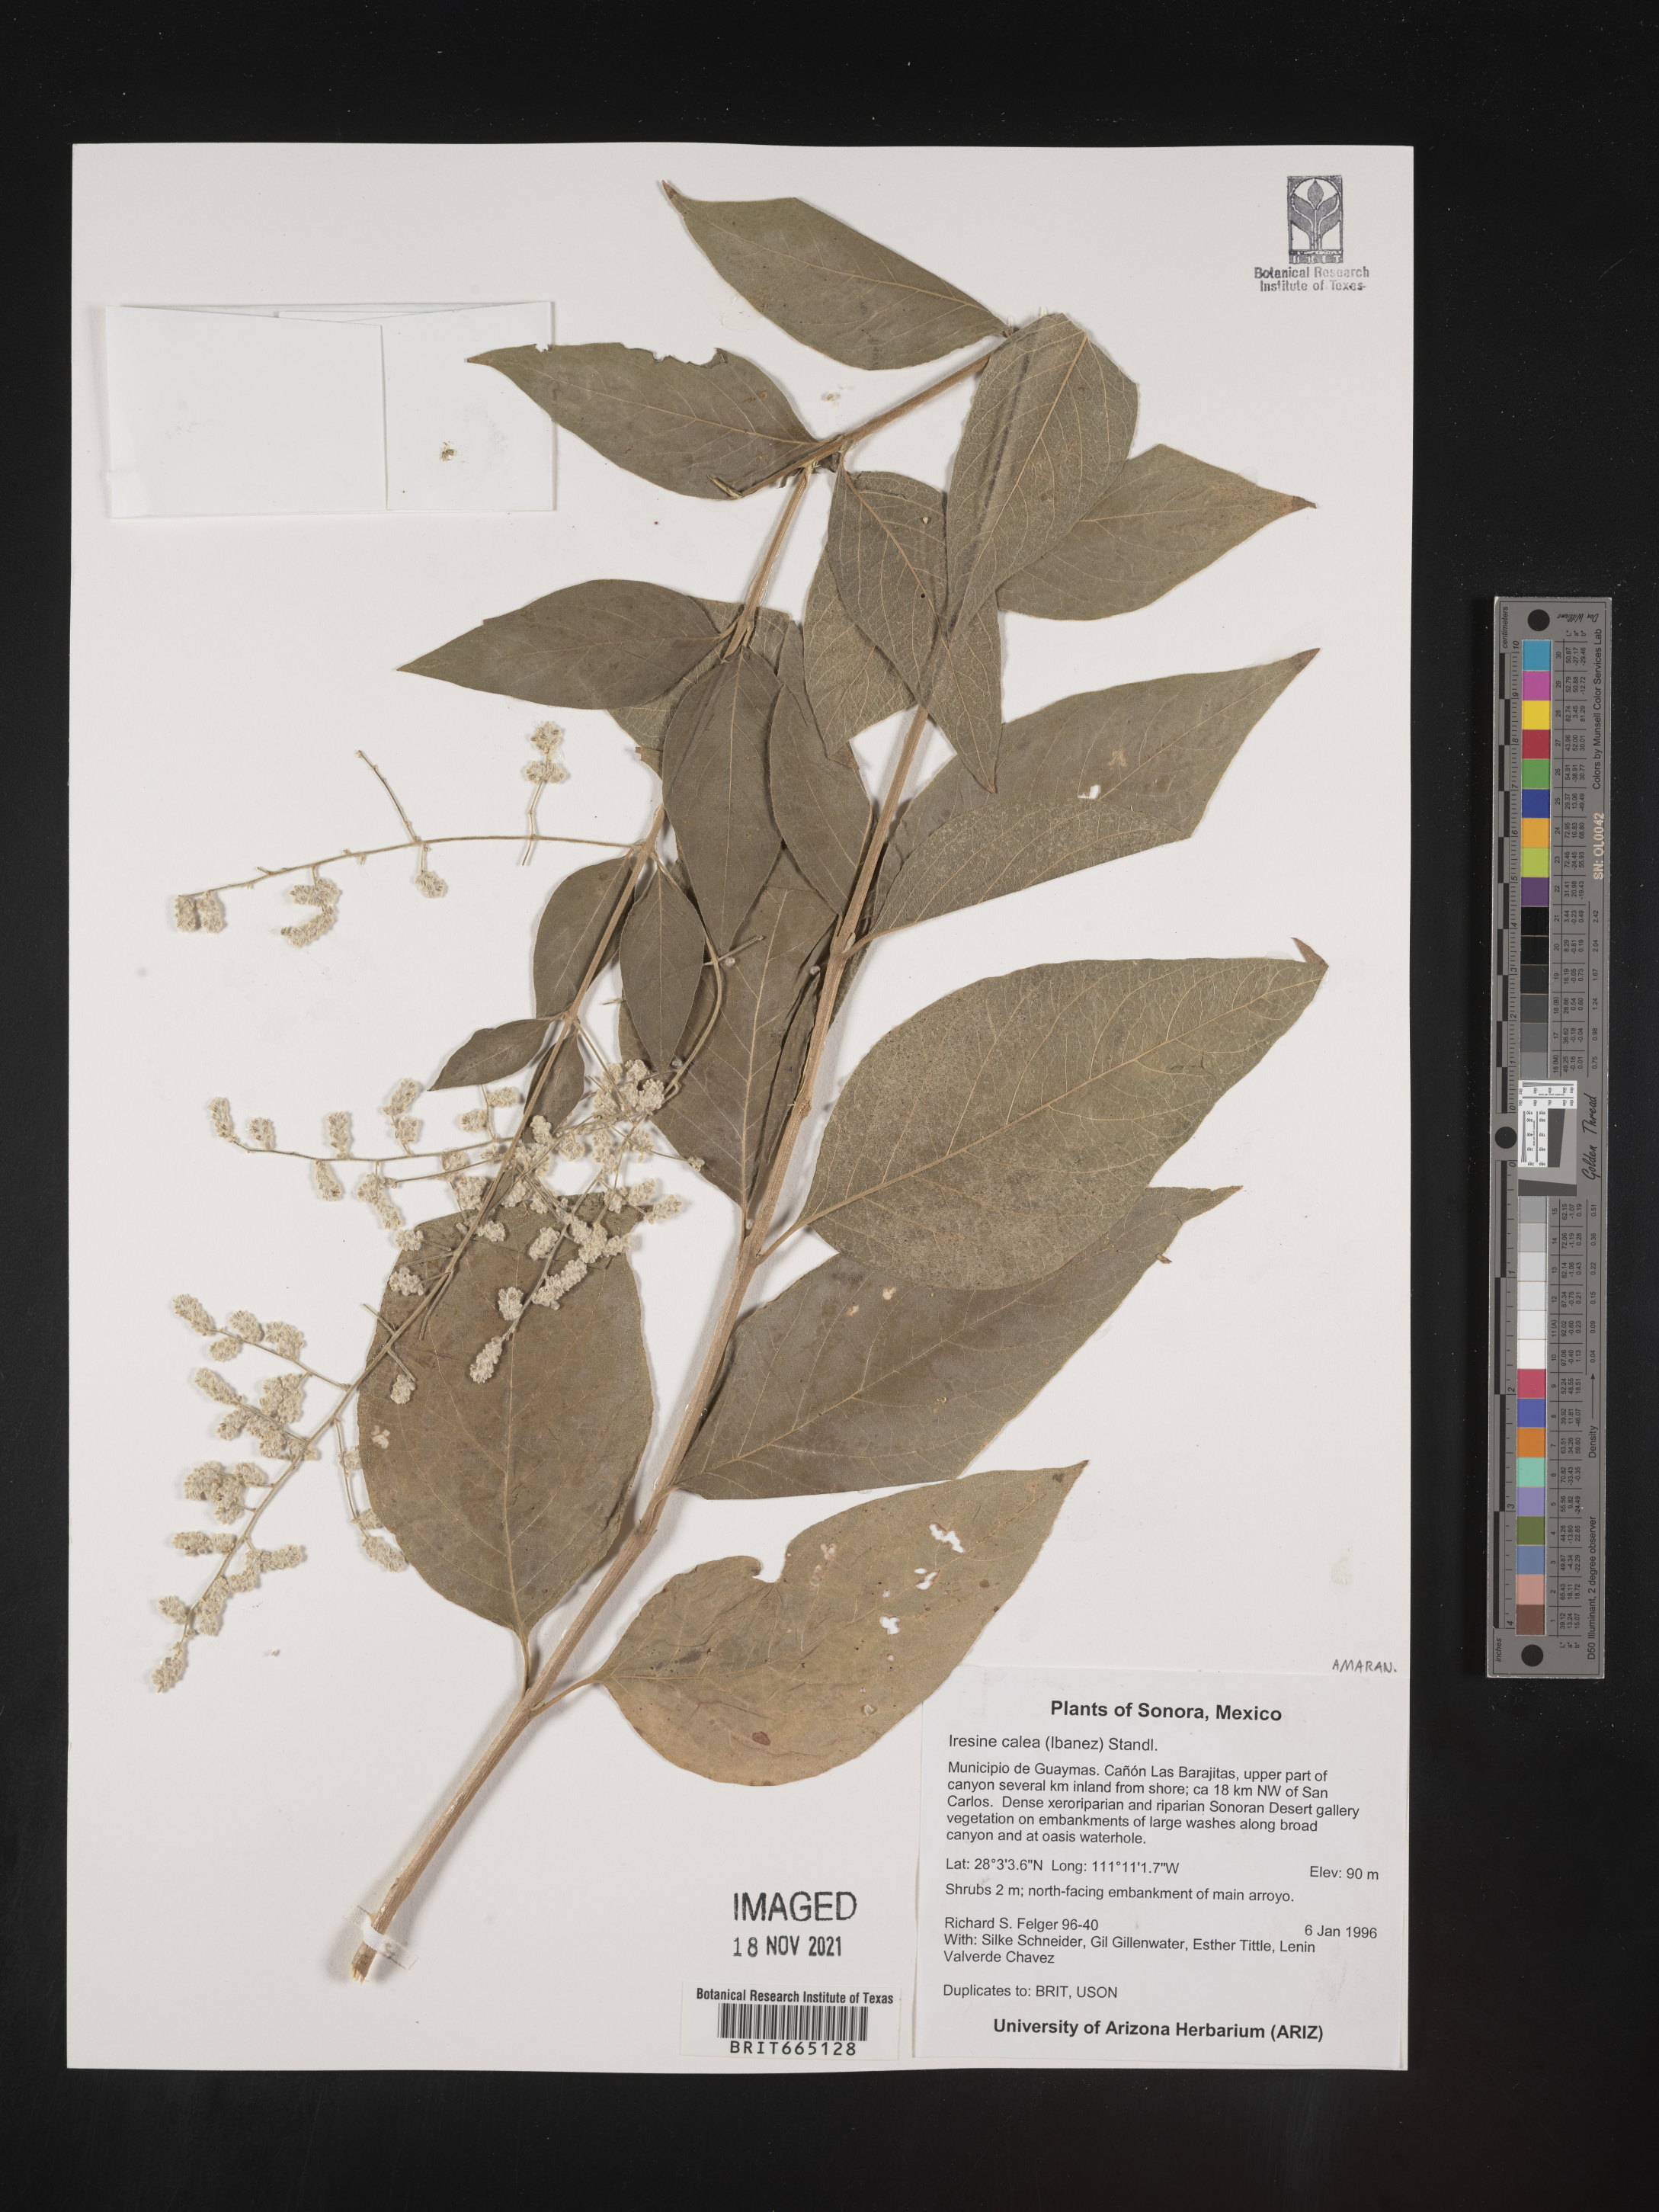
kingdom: Plantae
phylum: Tracheophyta
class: Magnoliopsida
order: Caryophyllales
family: Amaranthaceae
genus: Iresine
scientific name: Iresine
